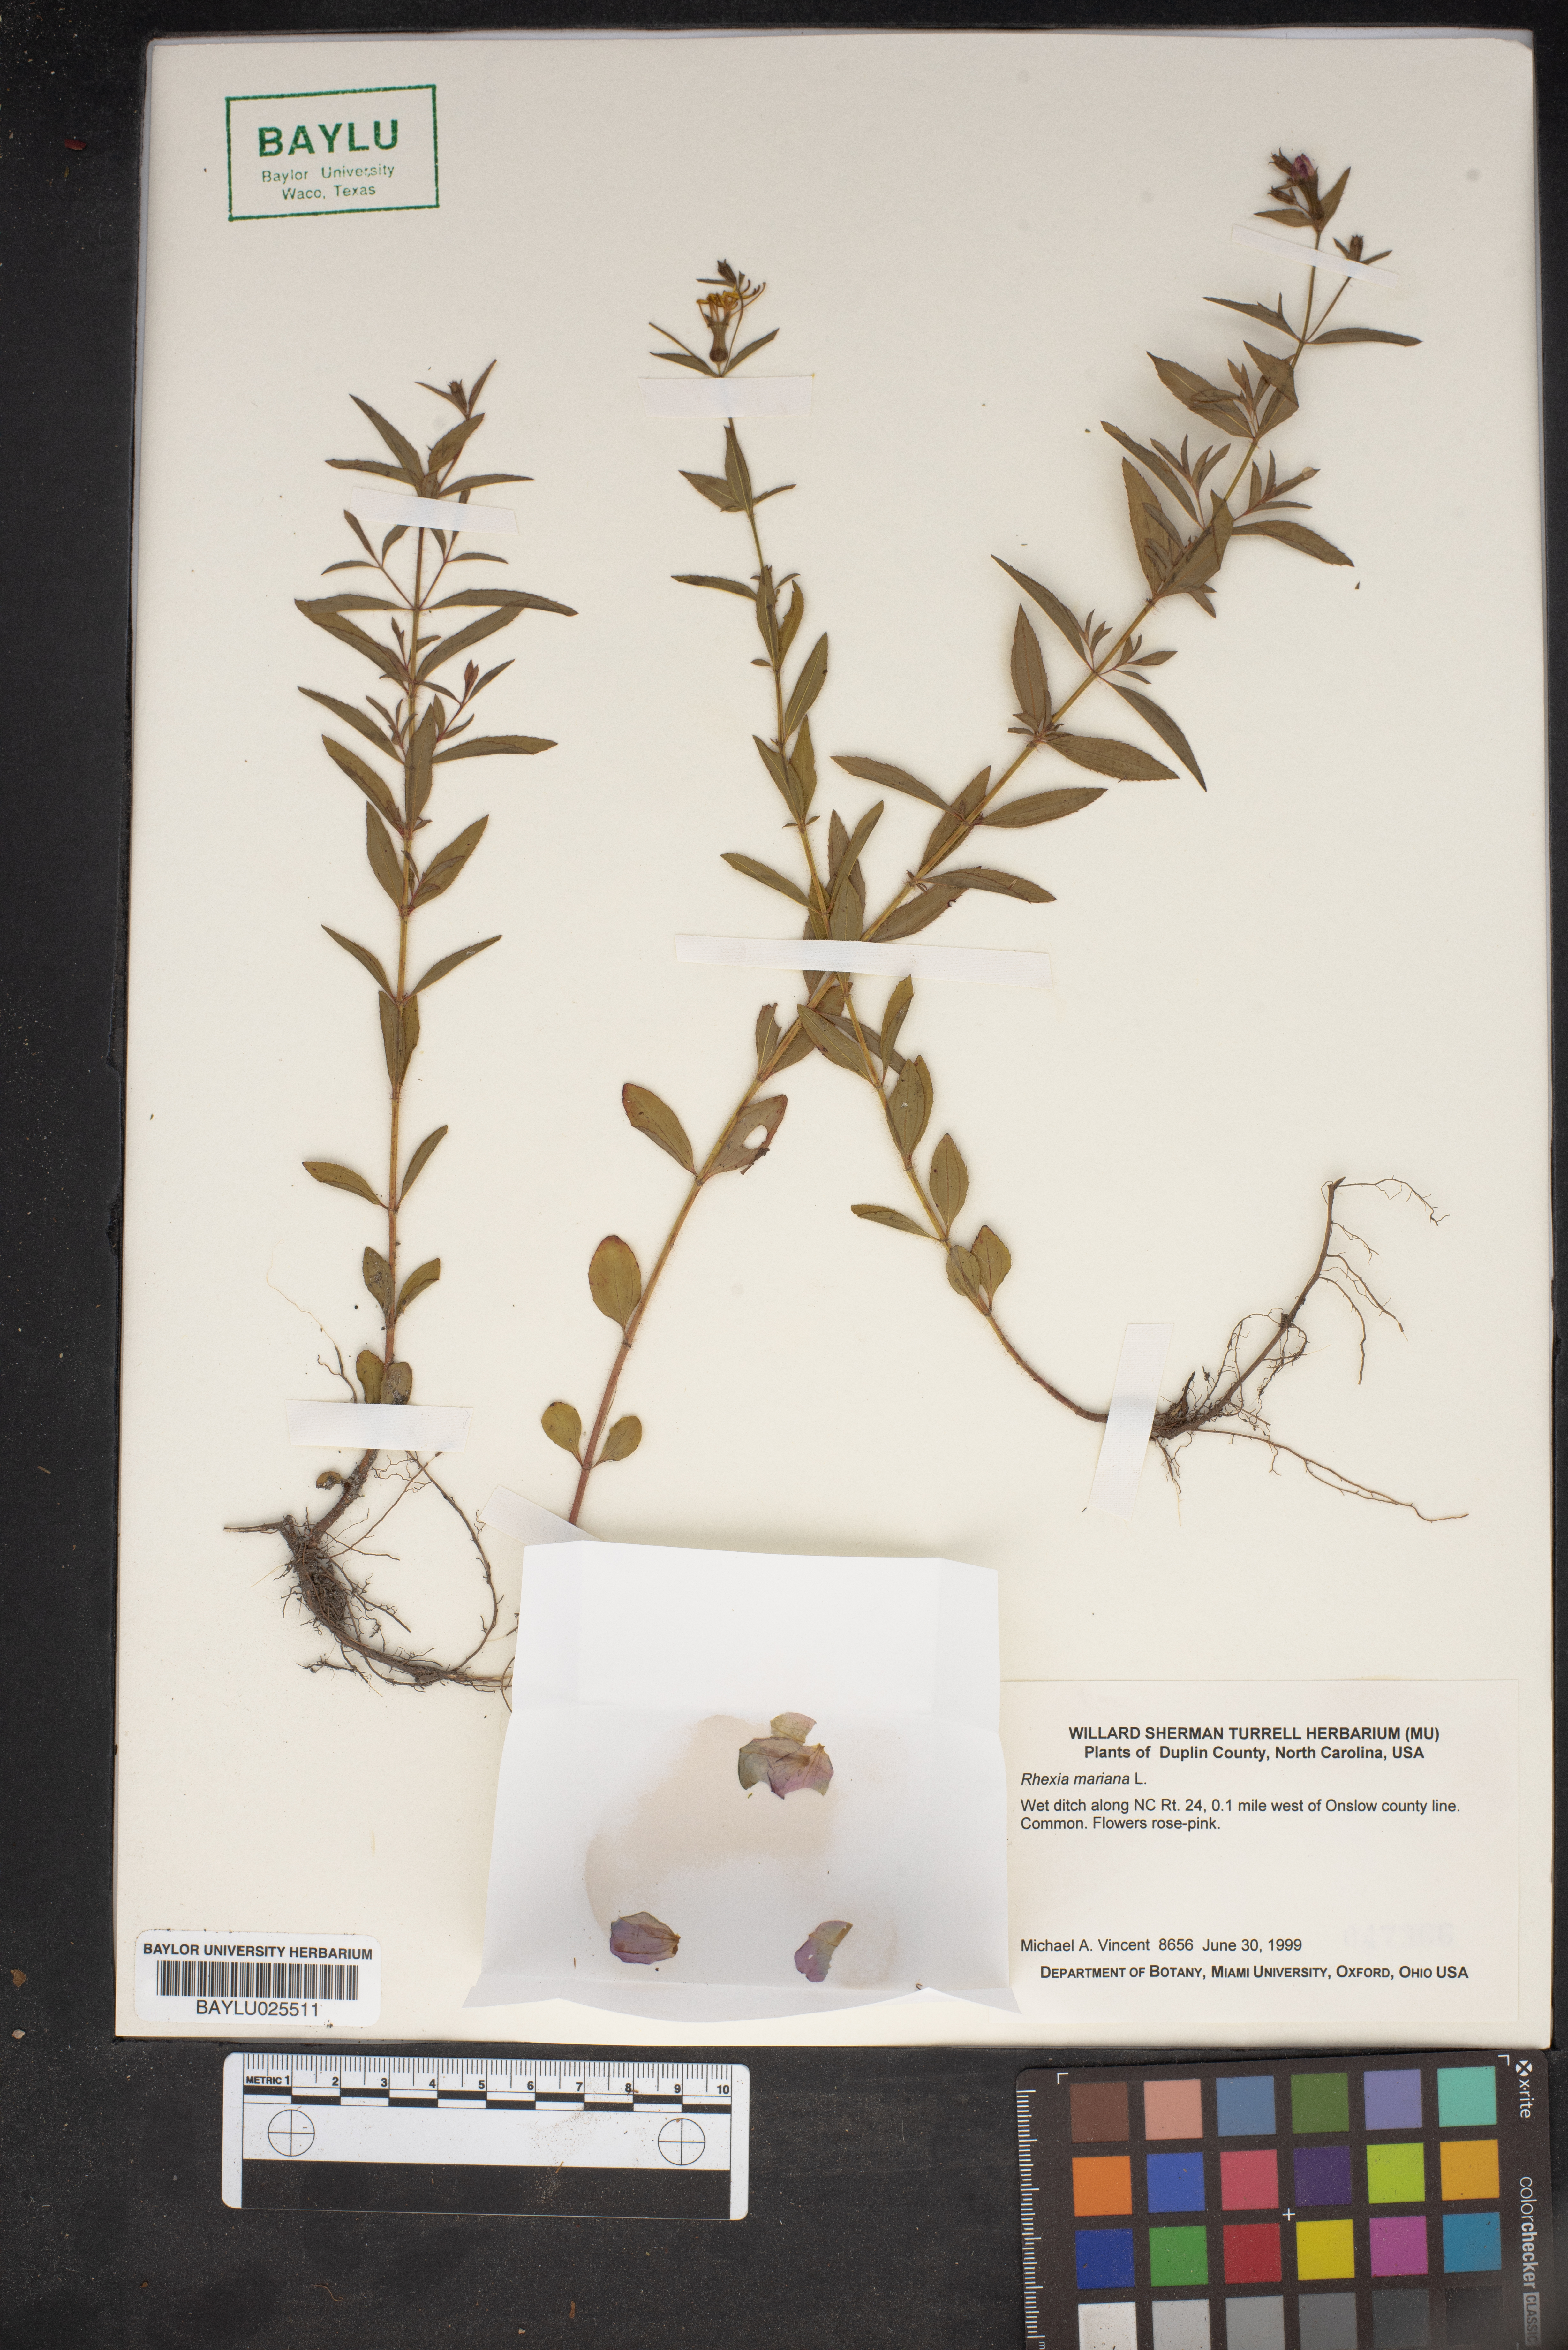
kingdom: Plantae
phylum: Tracheophyta
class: Magnoliopsida
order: Myrtales
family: Melastomataceae
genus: Rhexia
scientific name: Rhexia mariana
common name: Dull meadow-pitcher
